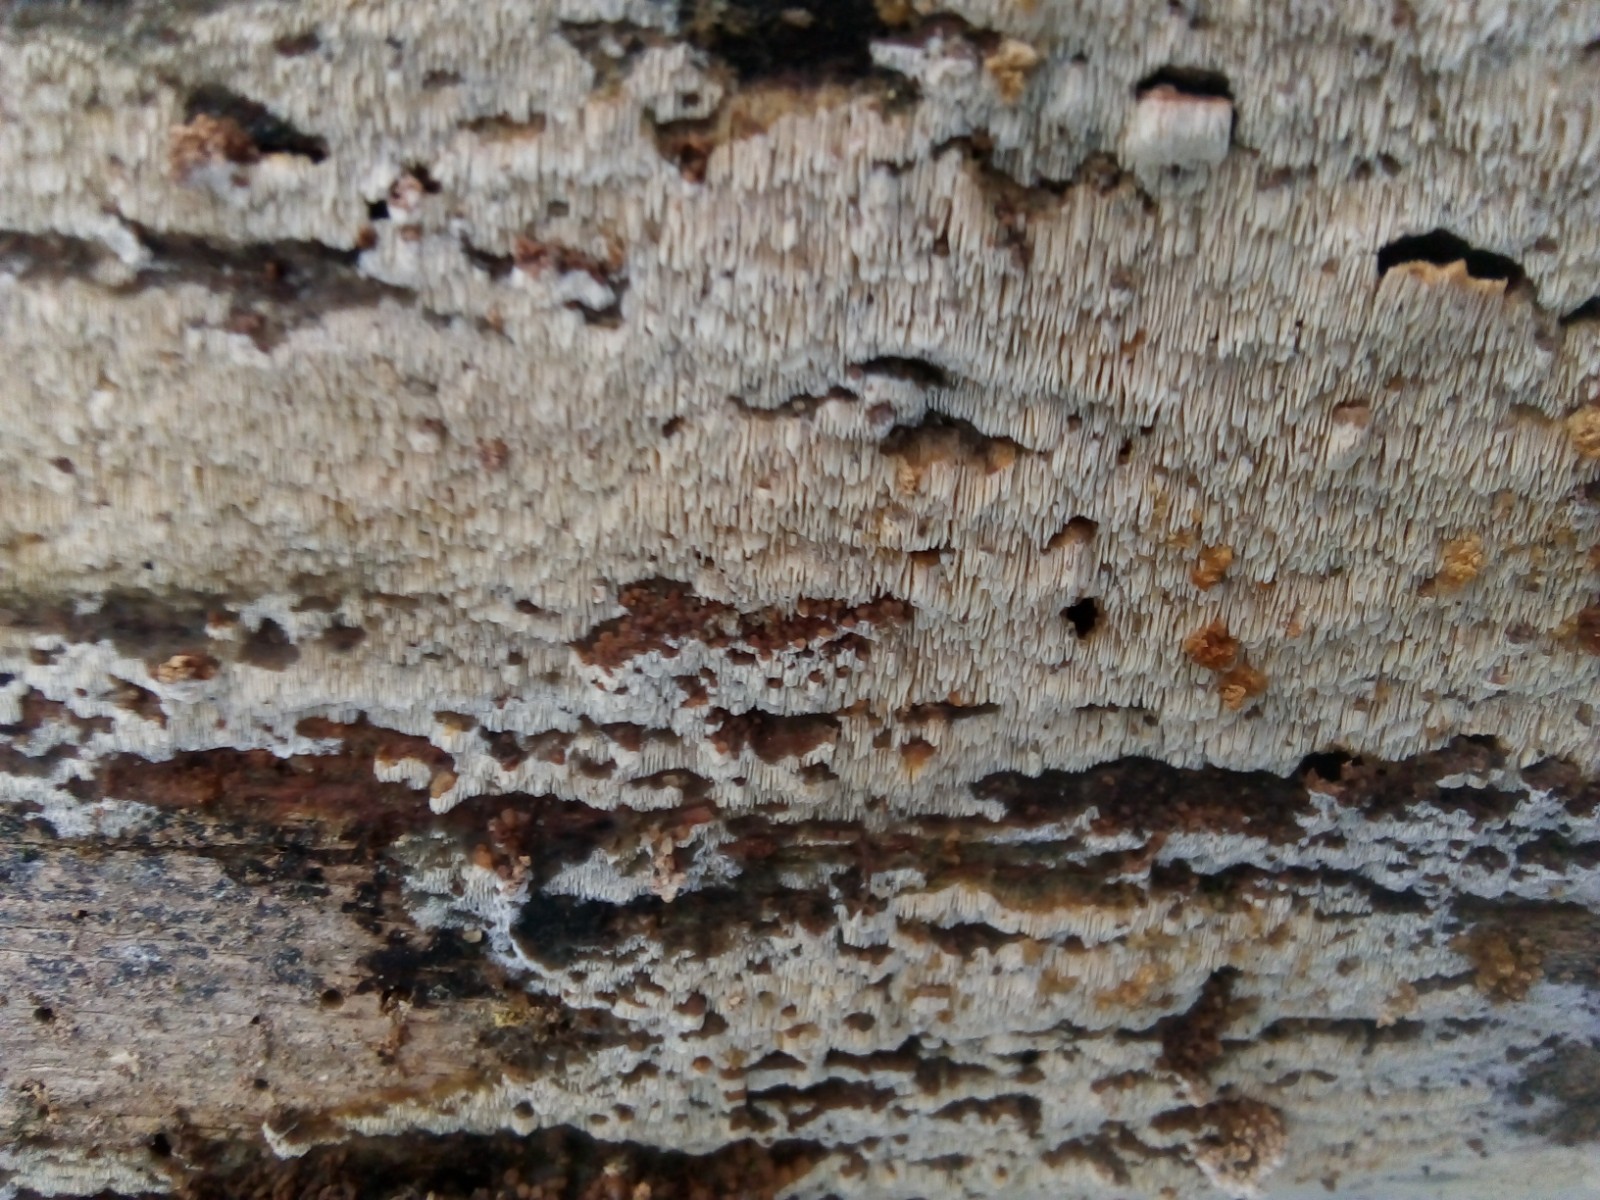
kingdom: Fungi
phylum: Basidiomycota
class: Agaricomycetes
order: Hymenochaetales
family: Schizoporaceae
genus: Xylodon
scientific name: Xylodon
